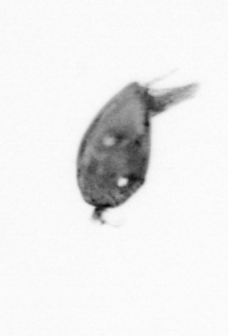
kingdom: Animalia
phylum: Arthropoda
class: Maxillopoda
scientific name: Maxillopoda
